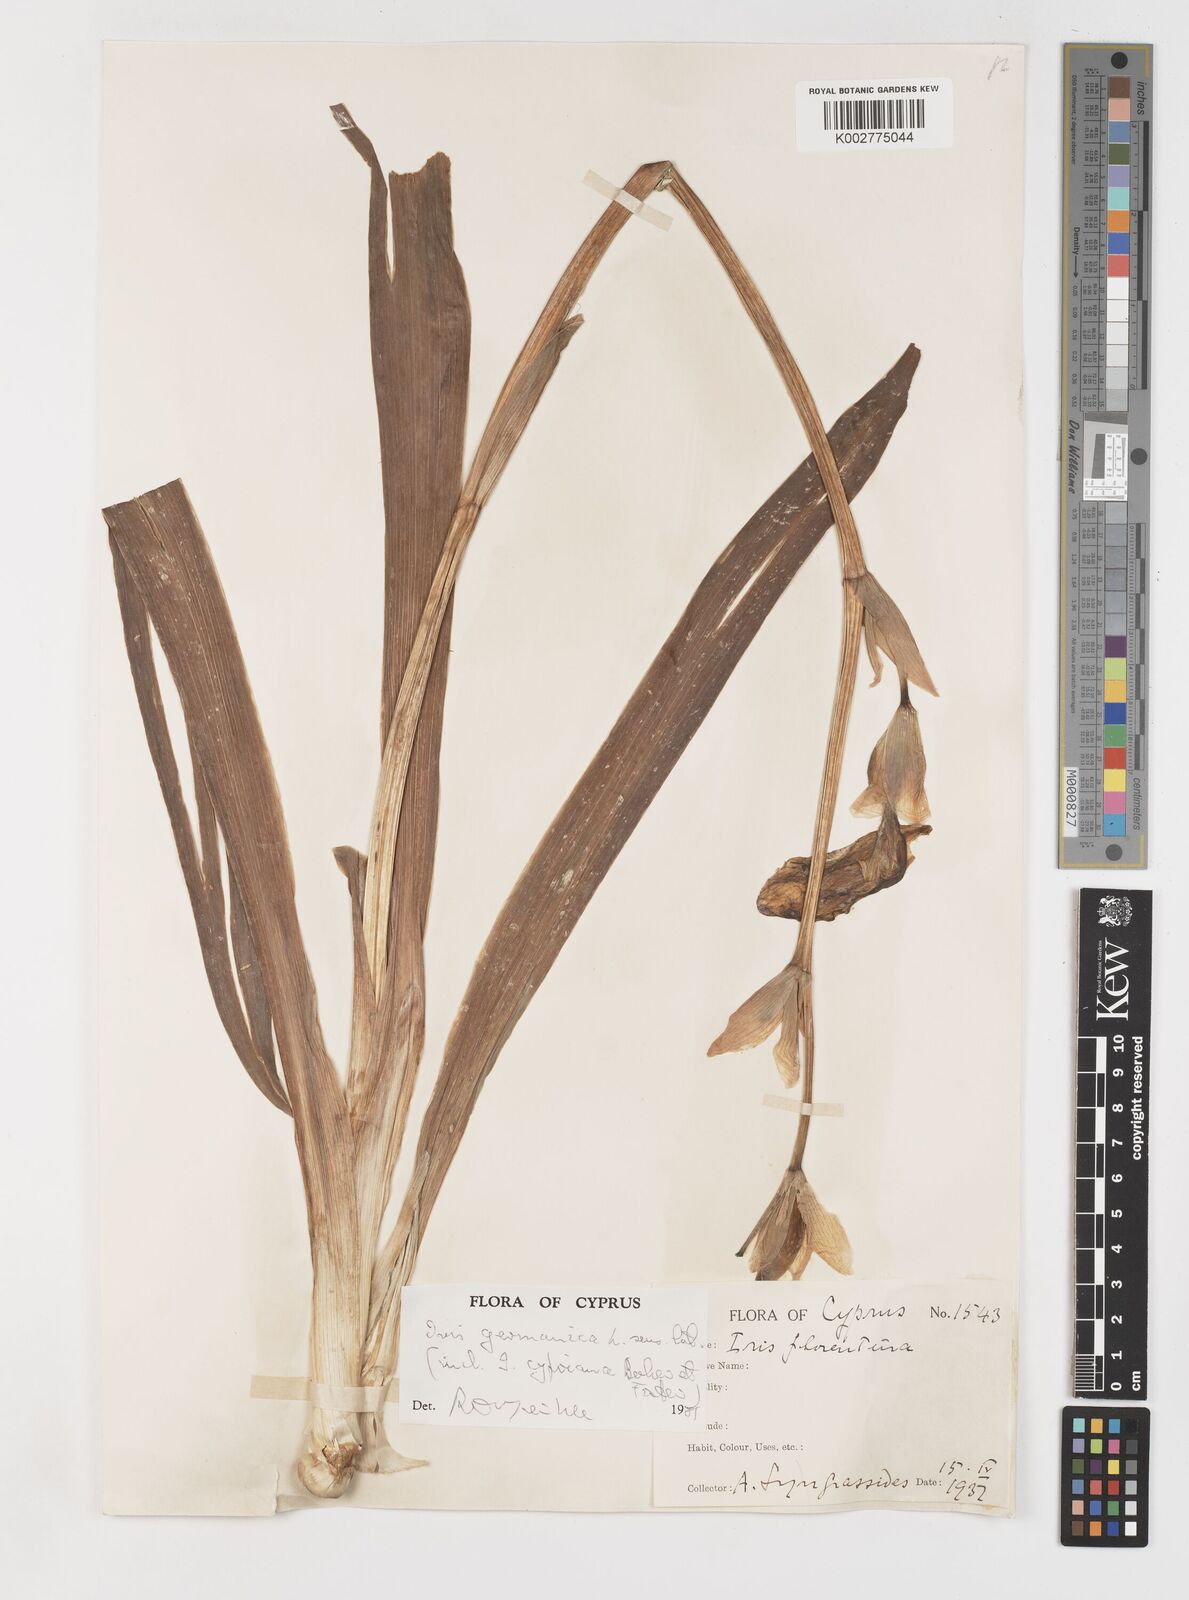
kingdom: Plantae
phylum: Tracheophyta
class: Liliopsida
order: Asparagales
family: Iridaceae
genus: Iris
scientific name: Iris germanica
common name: German iris
